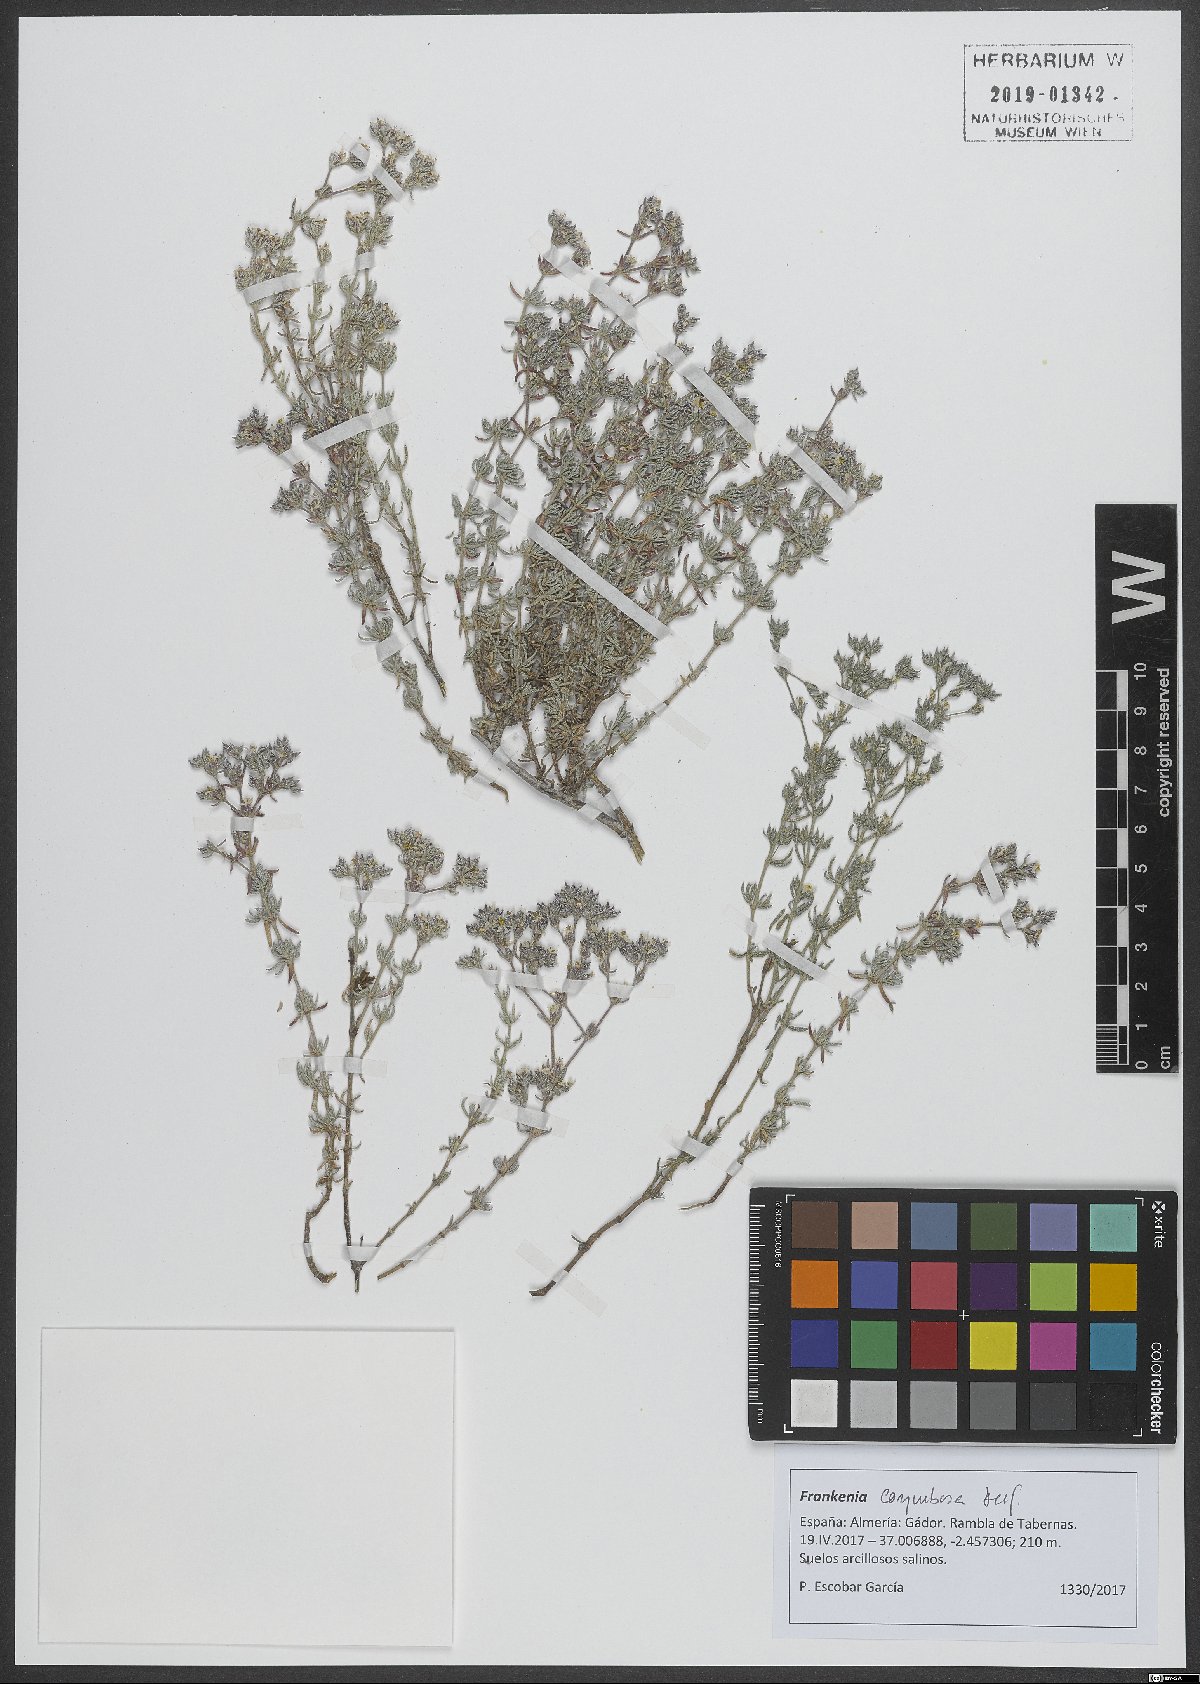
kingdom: Plantae
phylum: Tracheophyta
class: Magnoliopsida
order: Caryophyllales
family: Frankeniaceae
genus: Frankenia
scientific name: Frankenia corymbosa
